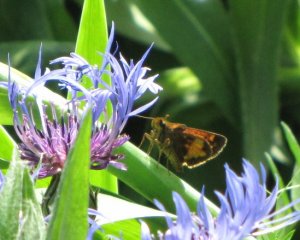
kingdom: Animalia
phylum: Arthropoda
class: Insecta
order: Lepidoptera
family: Hesperiidae
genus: Lon
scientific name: Lon hobomok
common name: Hobomok Skipper
